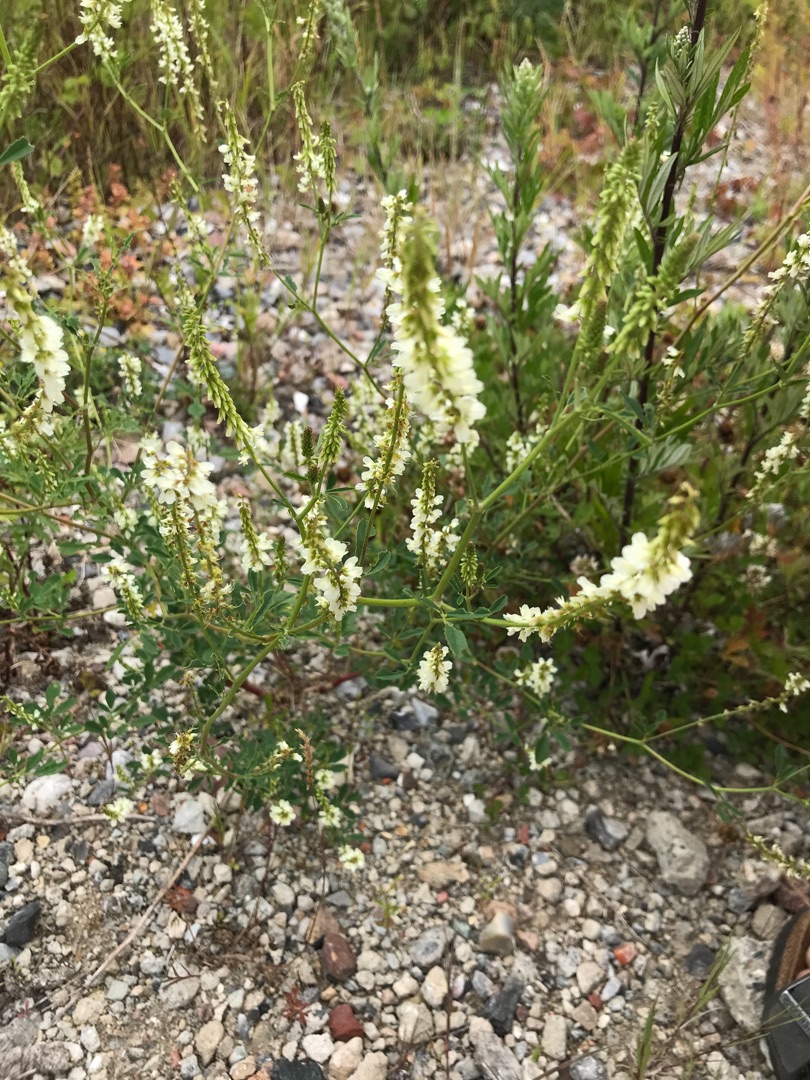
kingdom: Plantae
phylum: Tracheophyta
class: Magnoliopsida
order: Fabales
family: Fabaceae
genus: Melilotus
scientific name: Melilotus albus
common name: Hvid stenkløver
